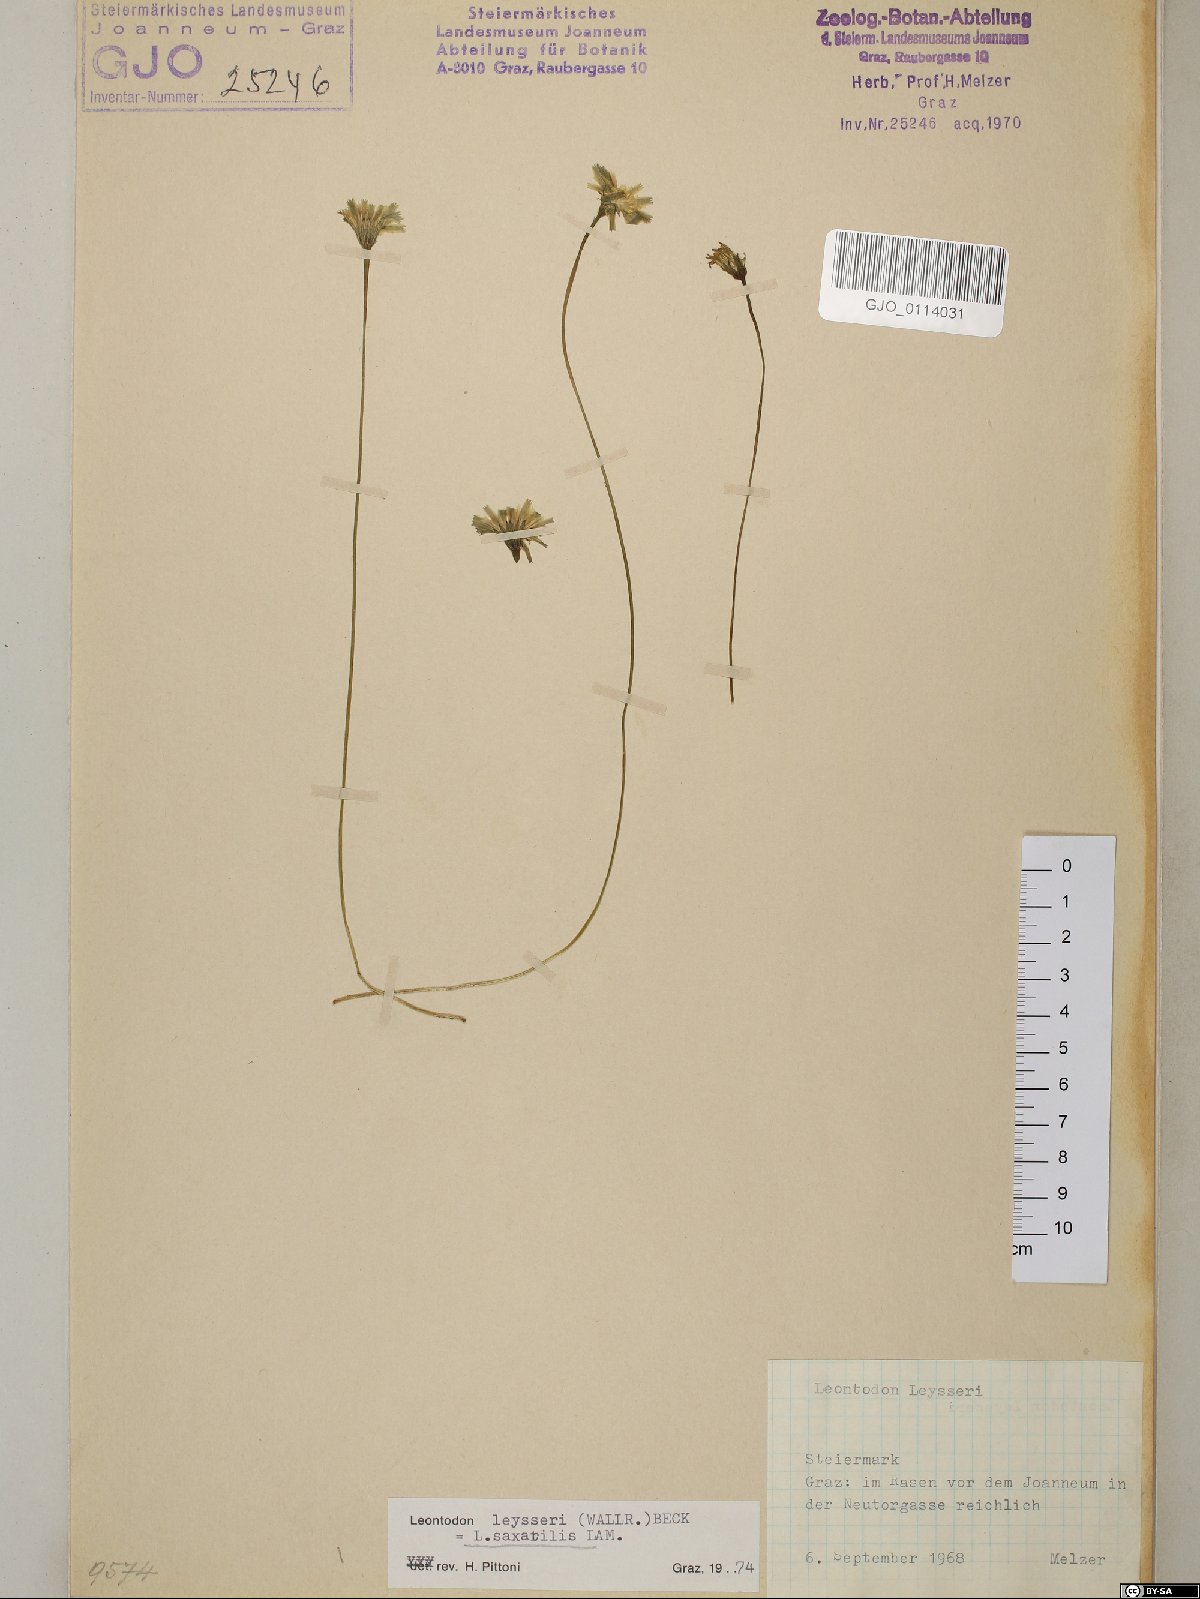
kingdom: Plantae
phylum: Tracheophyta
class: Magnoliopsida
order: Asterales
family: Asteraceae
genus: Thrincia
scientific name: Thrincia saxatilis
